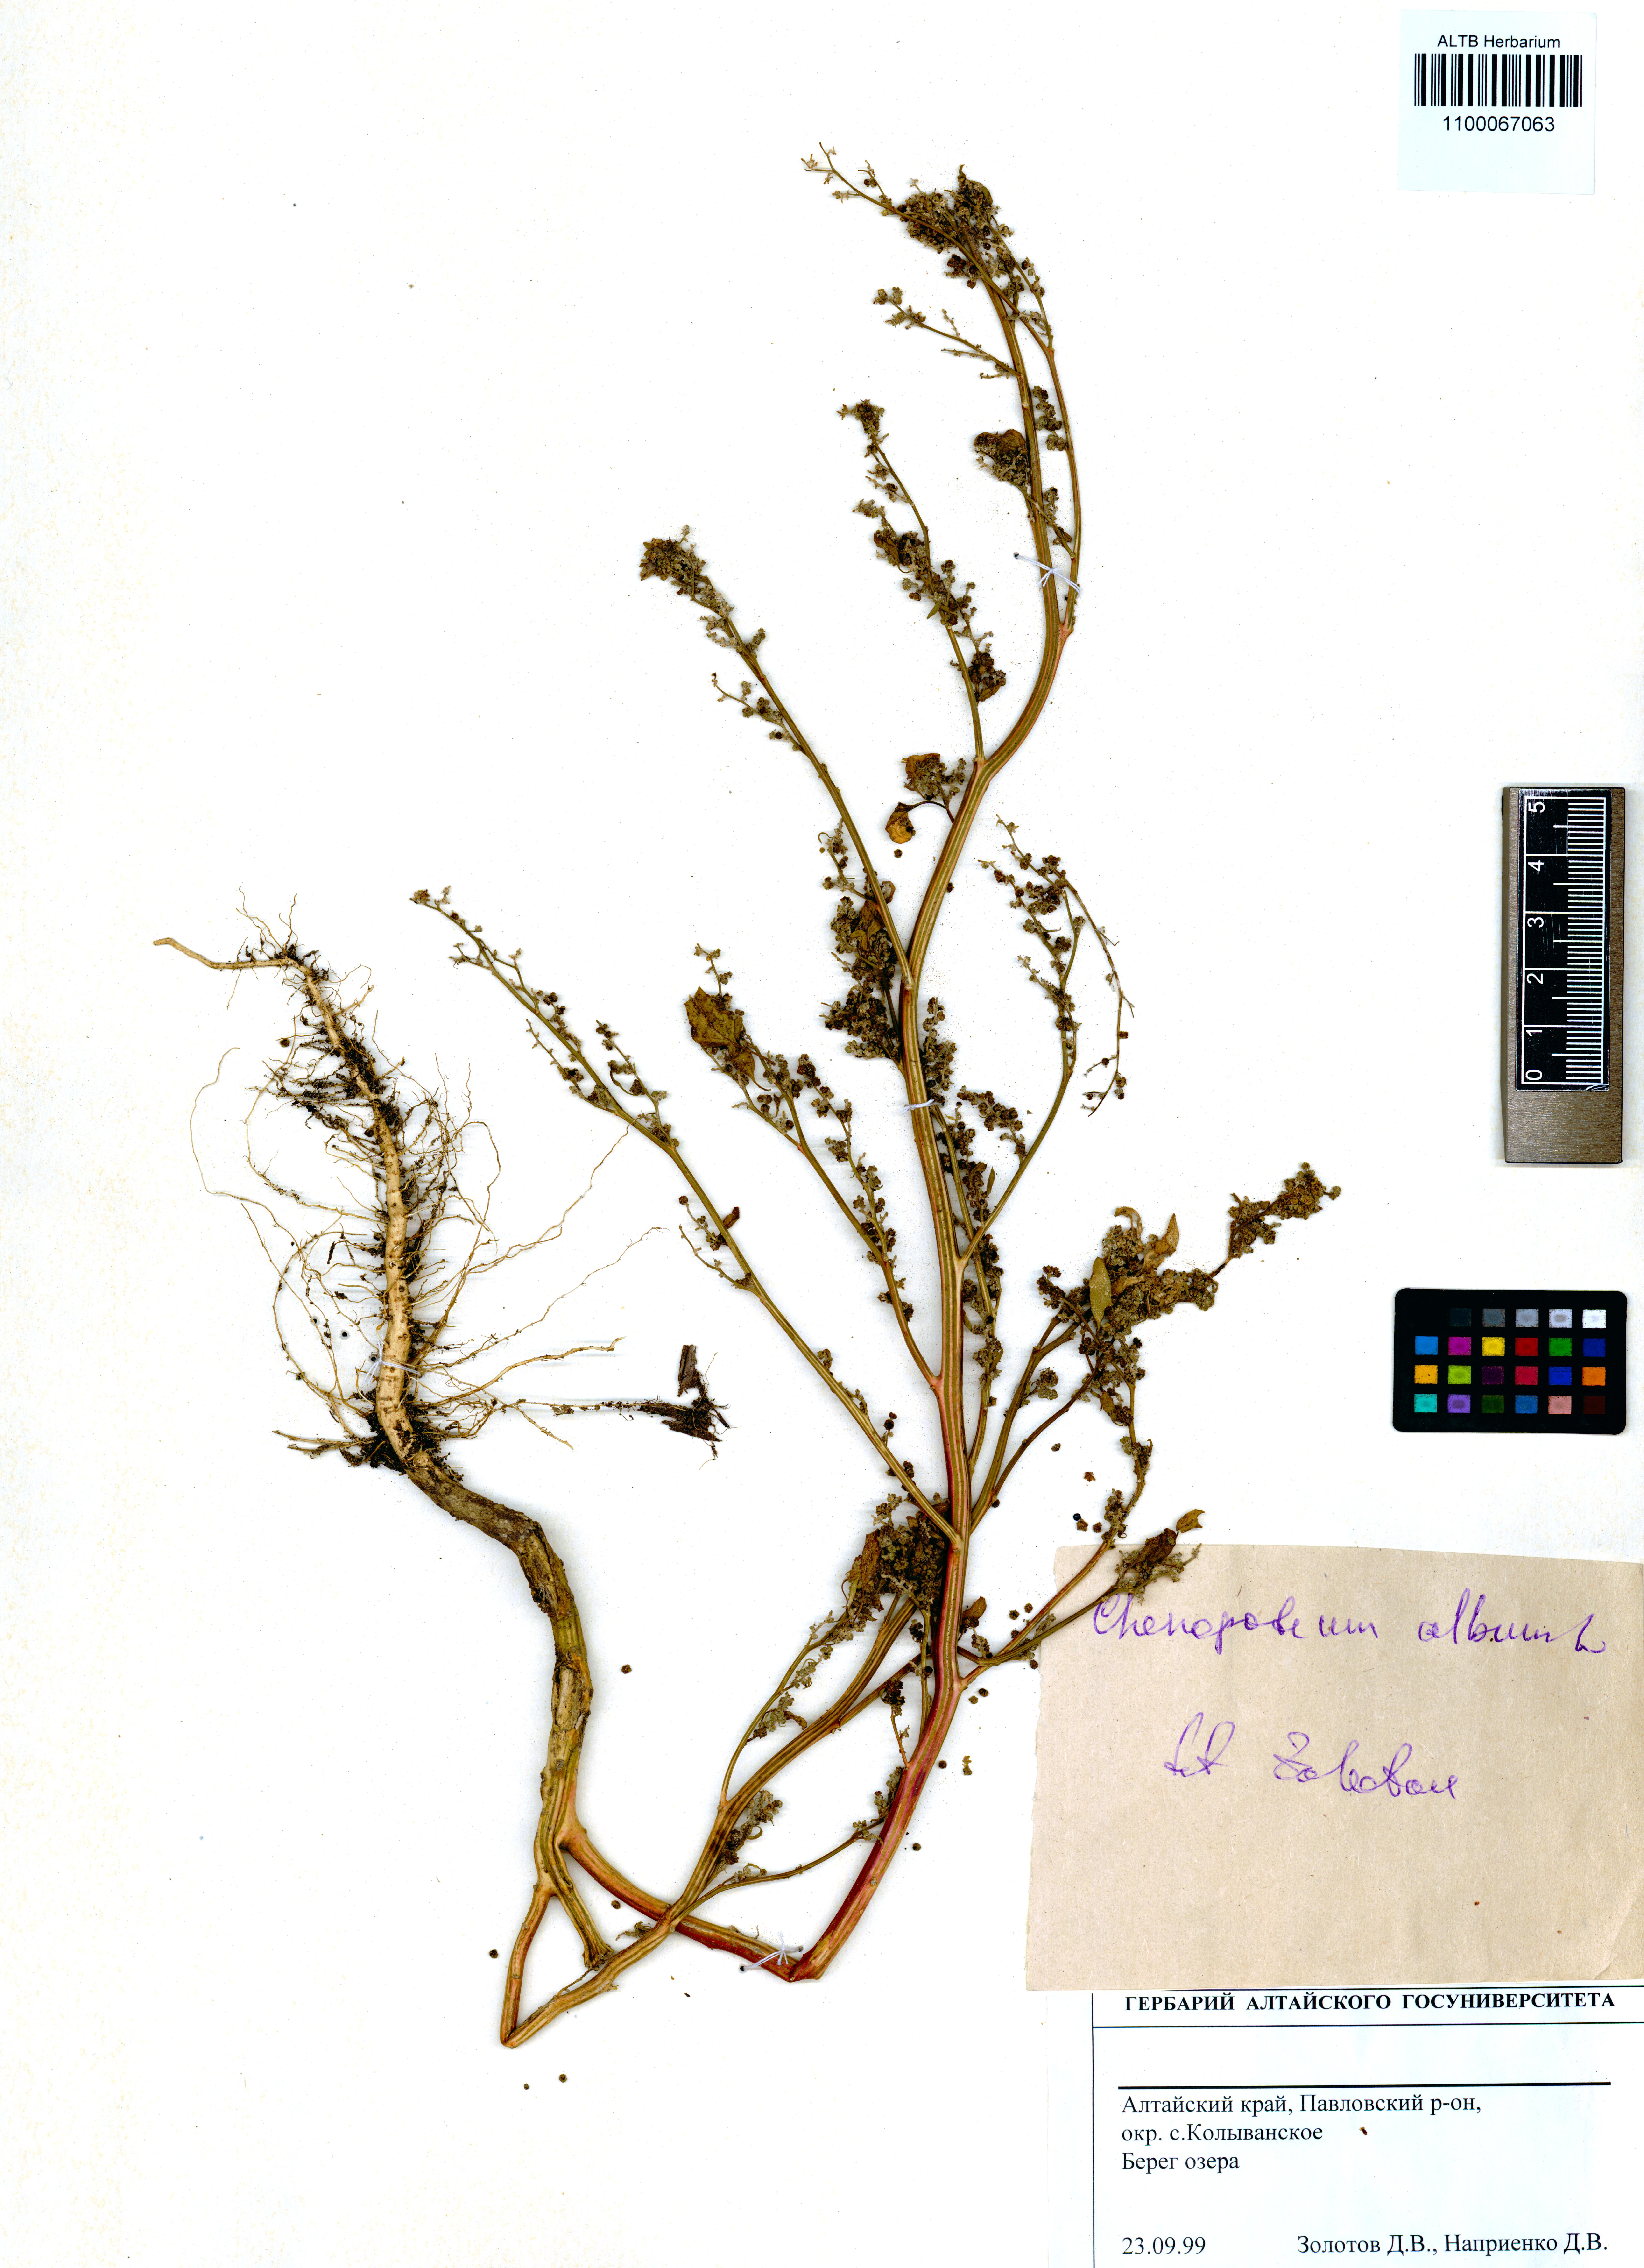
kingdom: Plantae
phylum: Tracheophyta
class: Magnoliopsida
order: Caryophyllales
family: Amaranthaceae
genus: Chenopodium
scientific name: Chenopodium album
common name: Fat-hen
